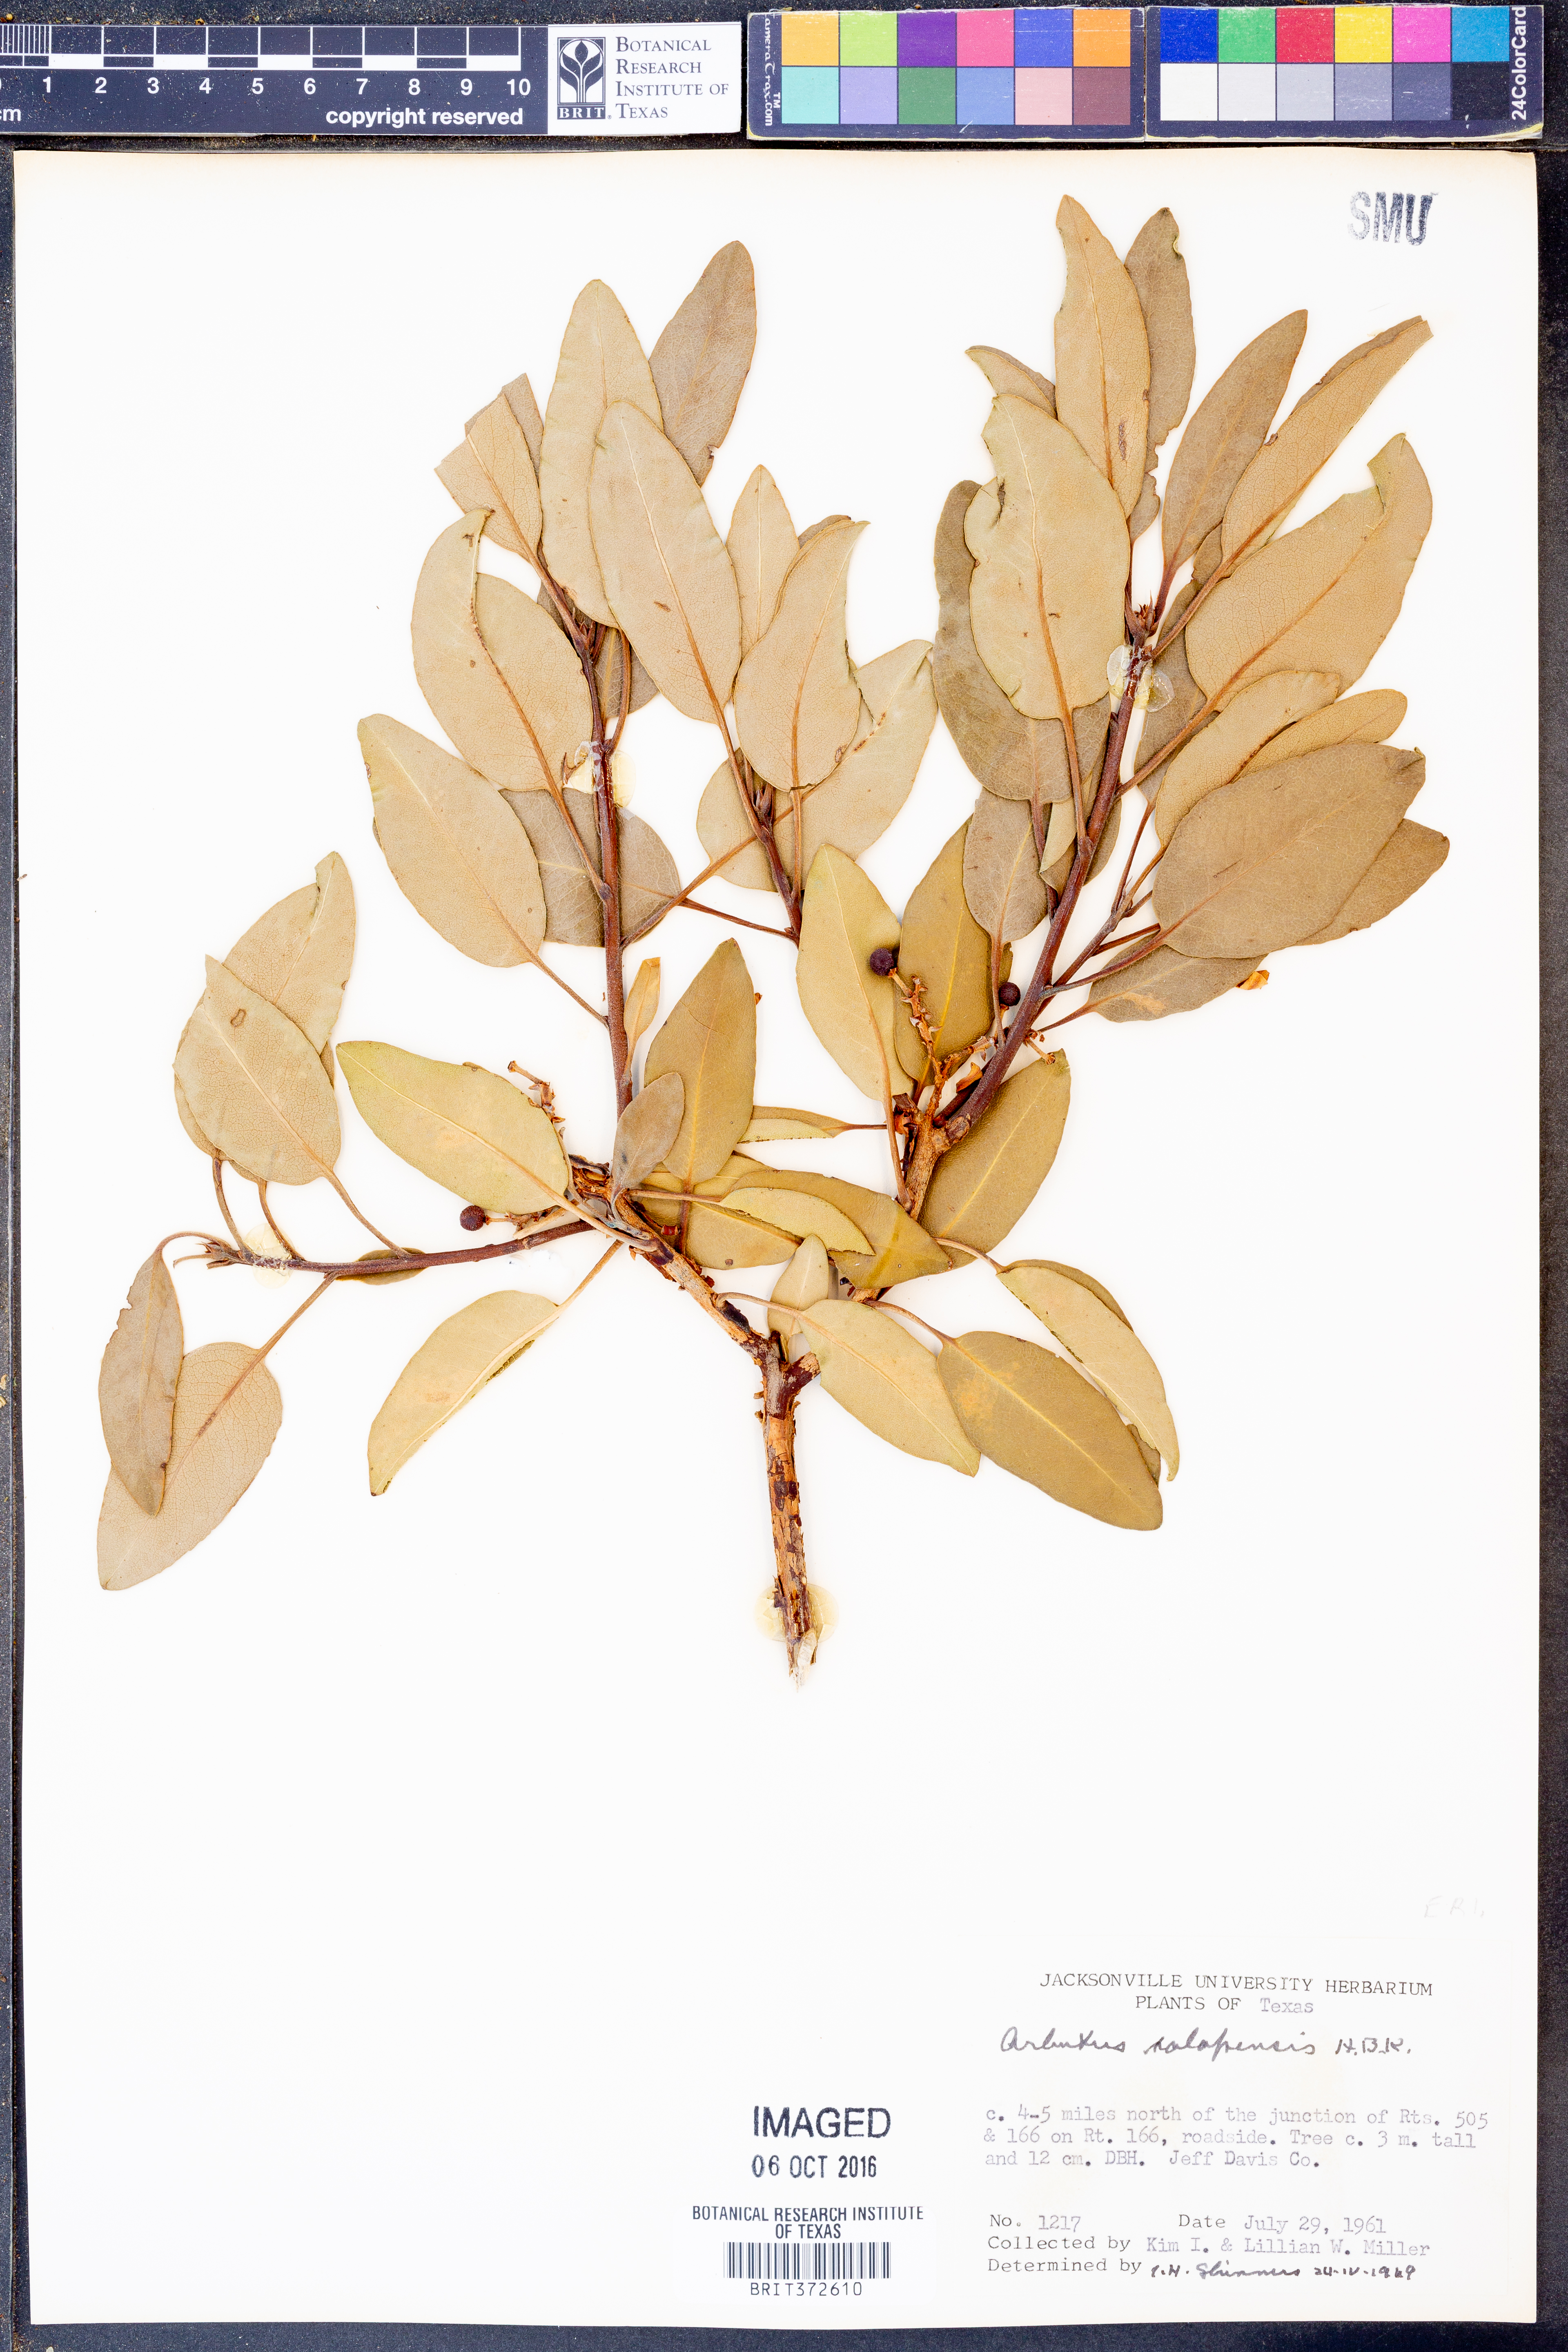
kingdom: Plantae
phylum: Tracheophyta
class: Magnoliopsida
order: Ericales
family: Ericaceae
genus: Arbutus
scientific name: Arbutus xalapensis
